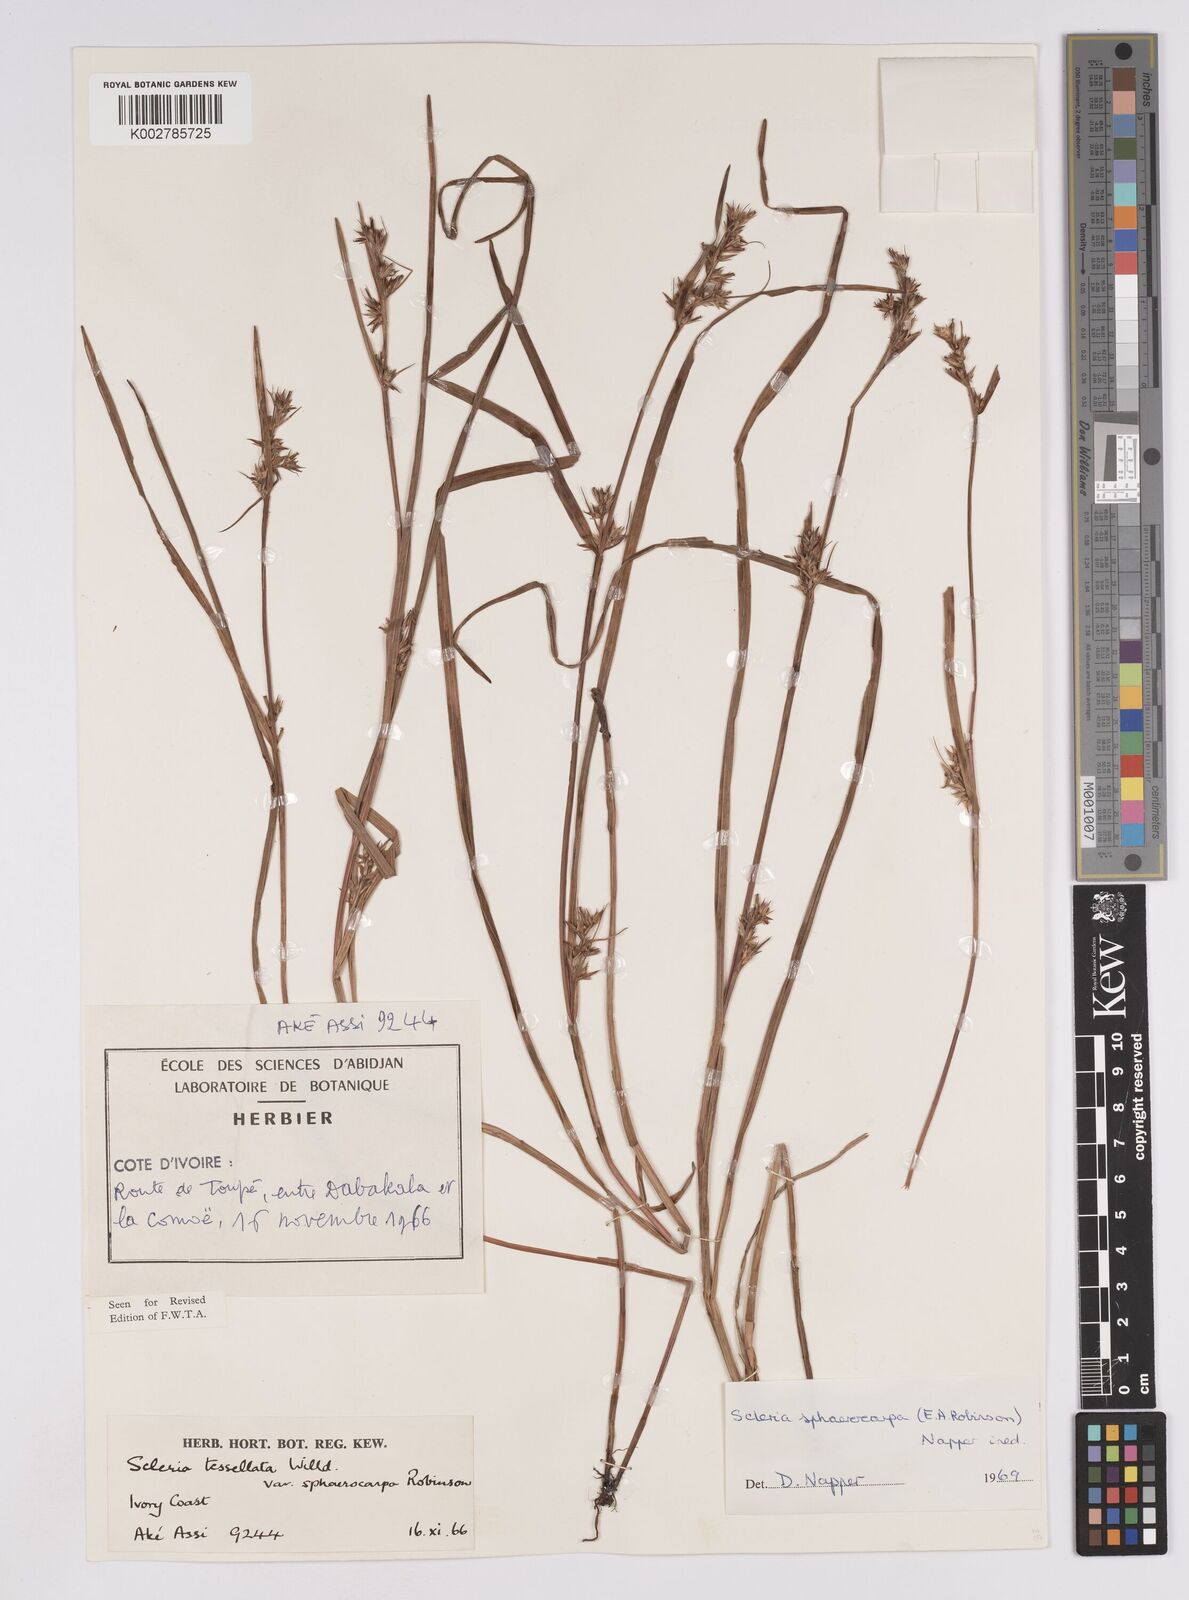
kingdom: Plantae
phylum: Tracheophyta
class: Liliopsida
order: Poales
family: Cyperaceae
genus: Scleria
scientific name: Scleria tessellata
